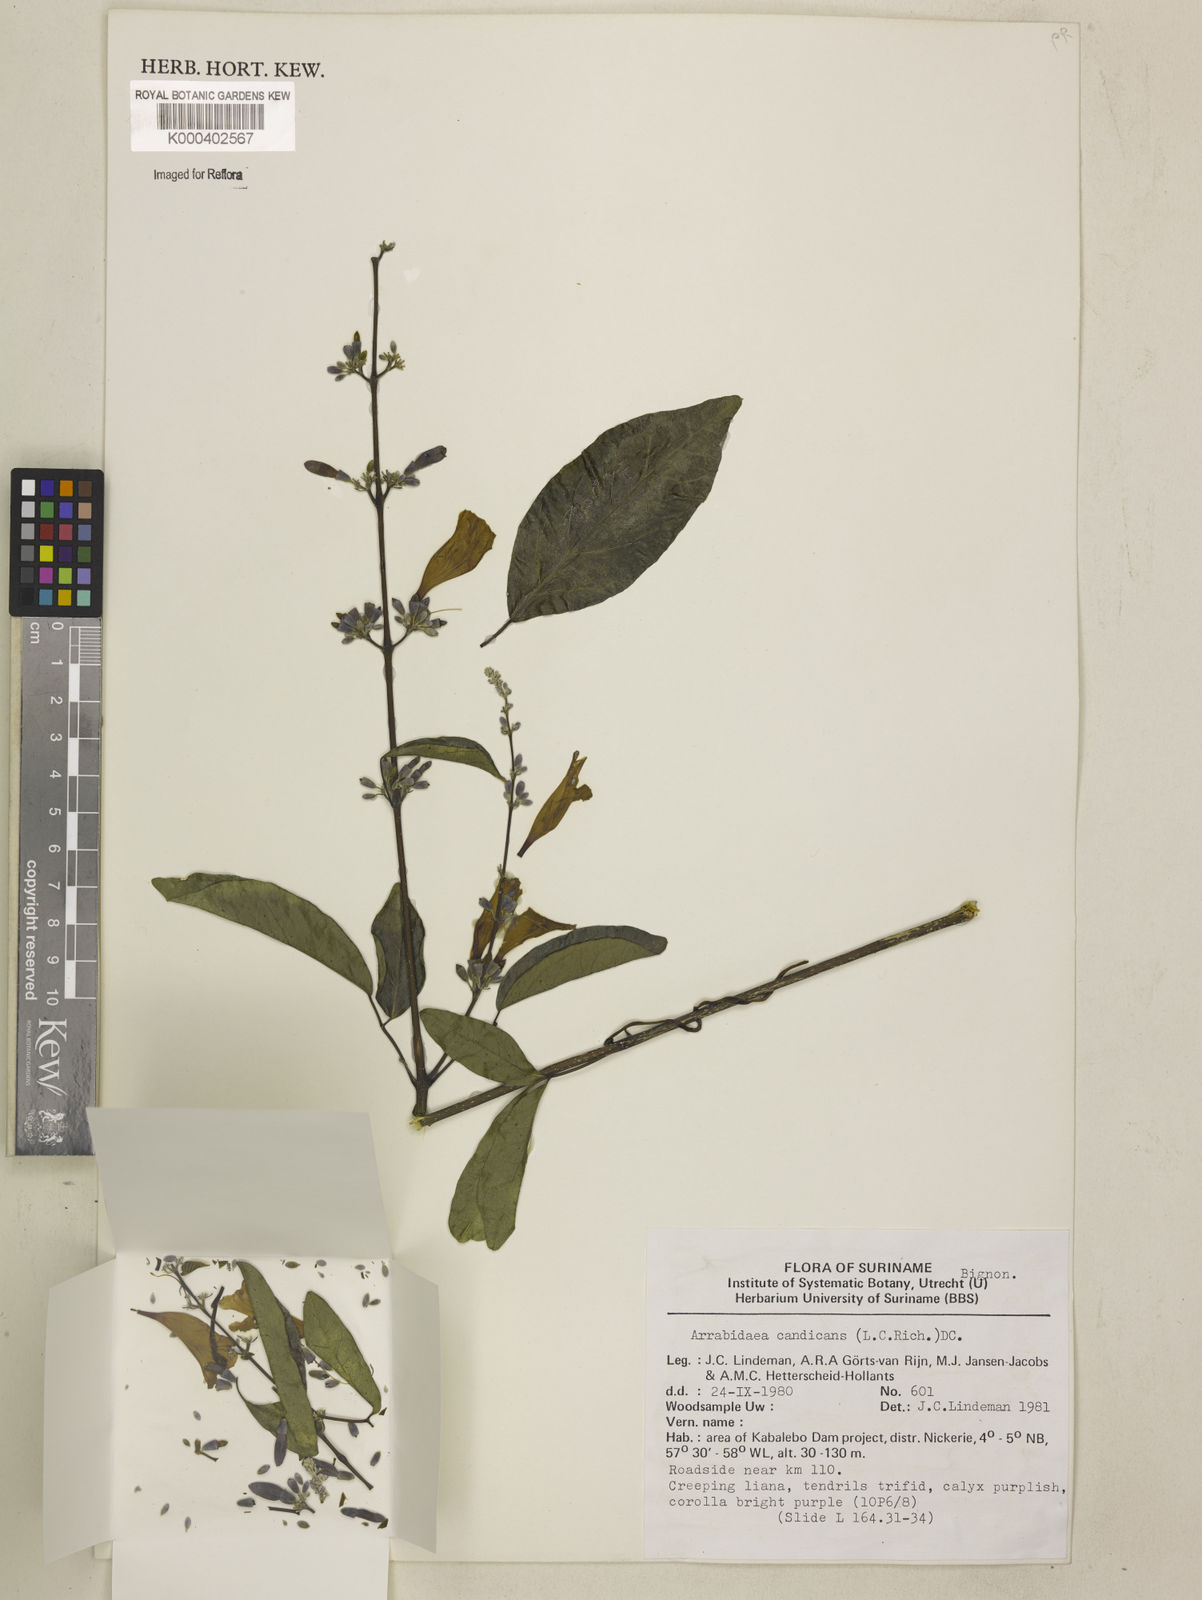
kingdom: Plantae
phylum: Tracheophyta
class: Magnoliopsida
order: Lamiales
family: Bignoniaceae
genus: Fridericia
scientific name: Fridericia candicans
